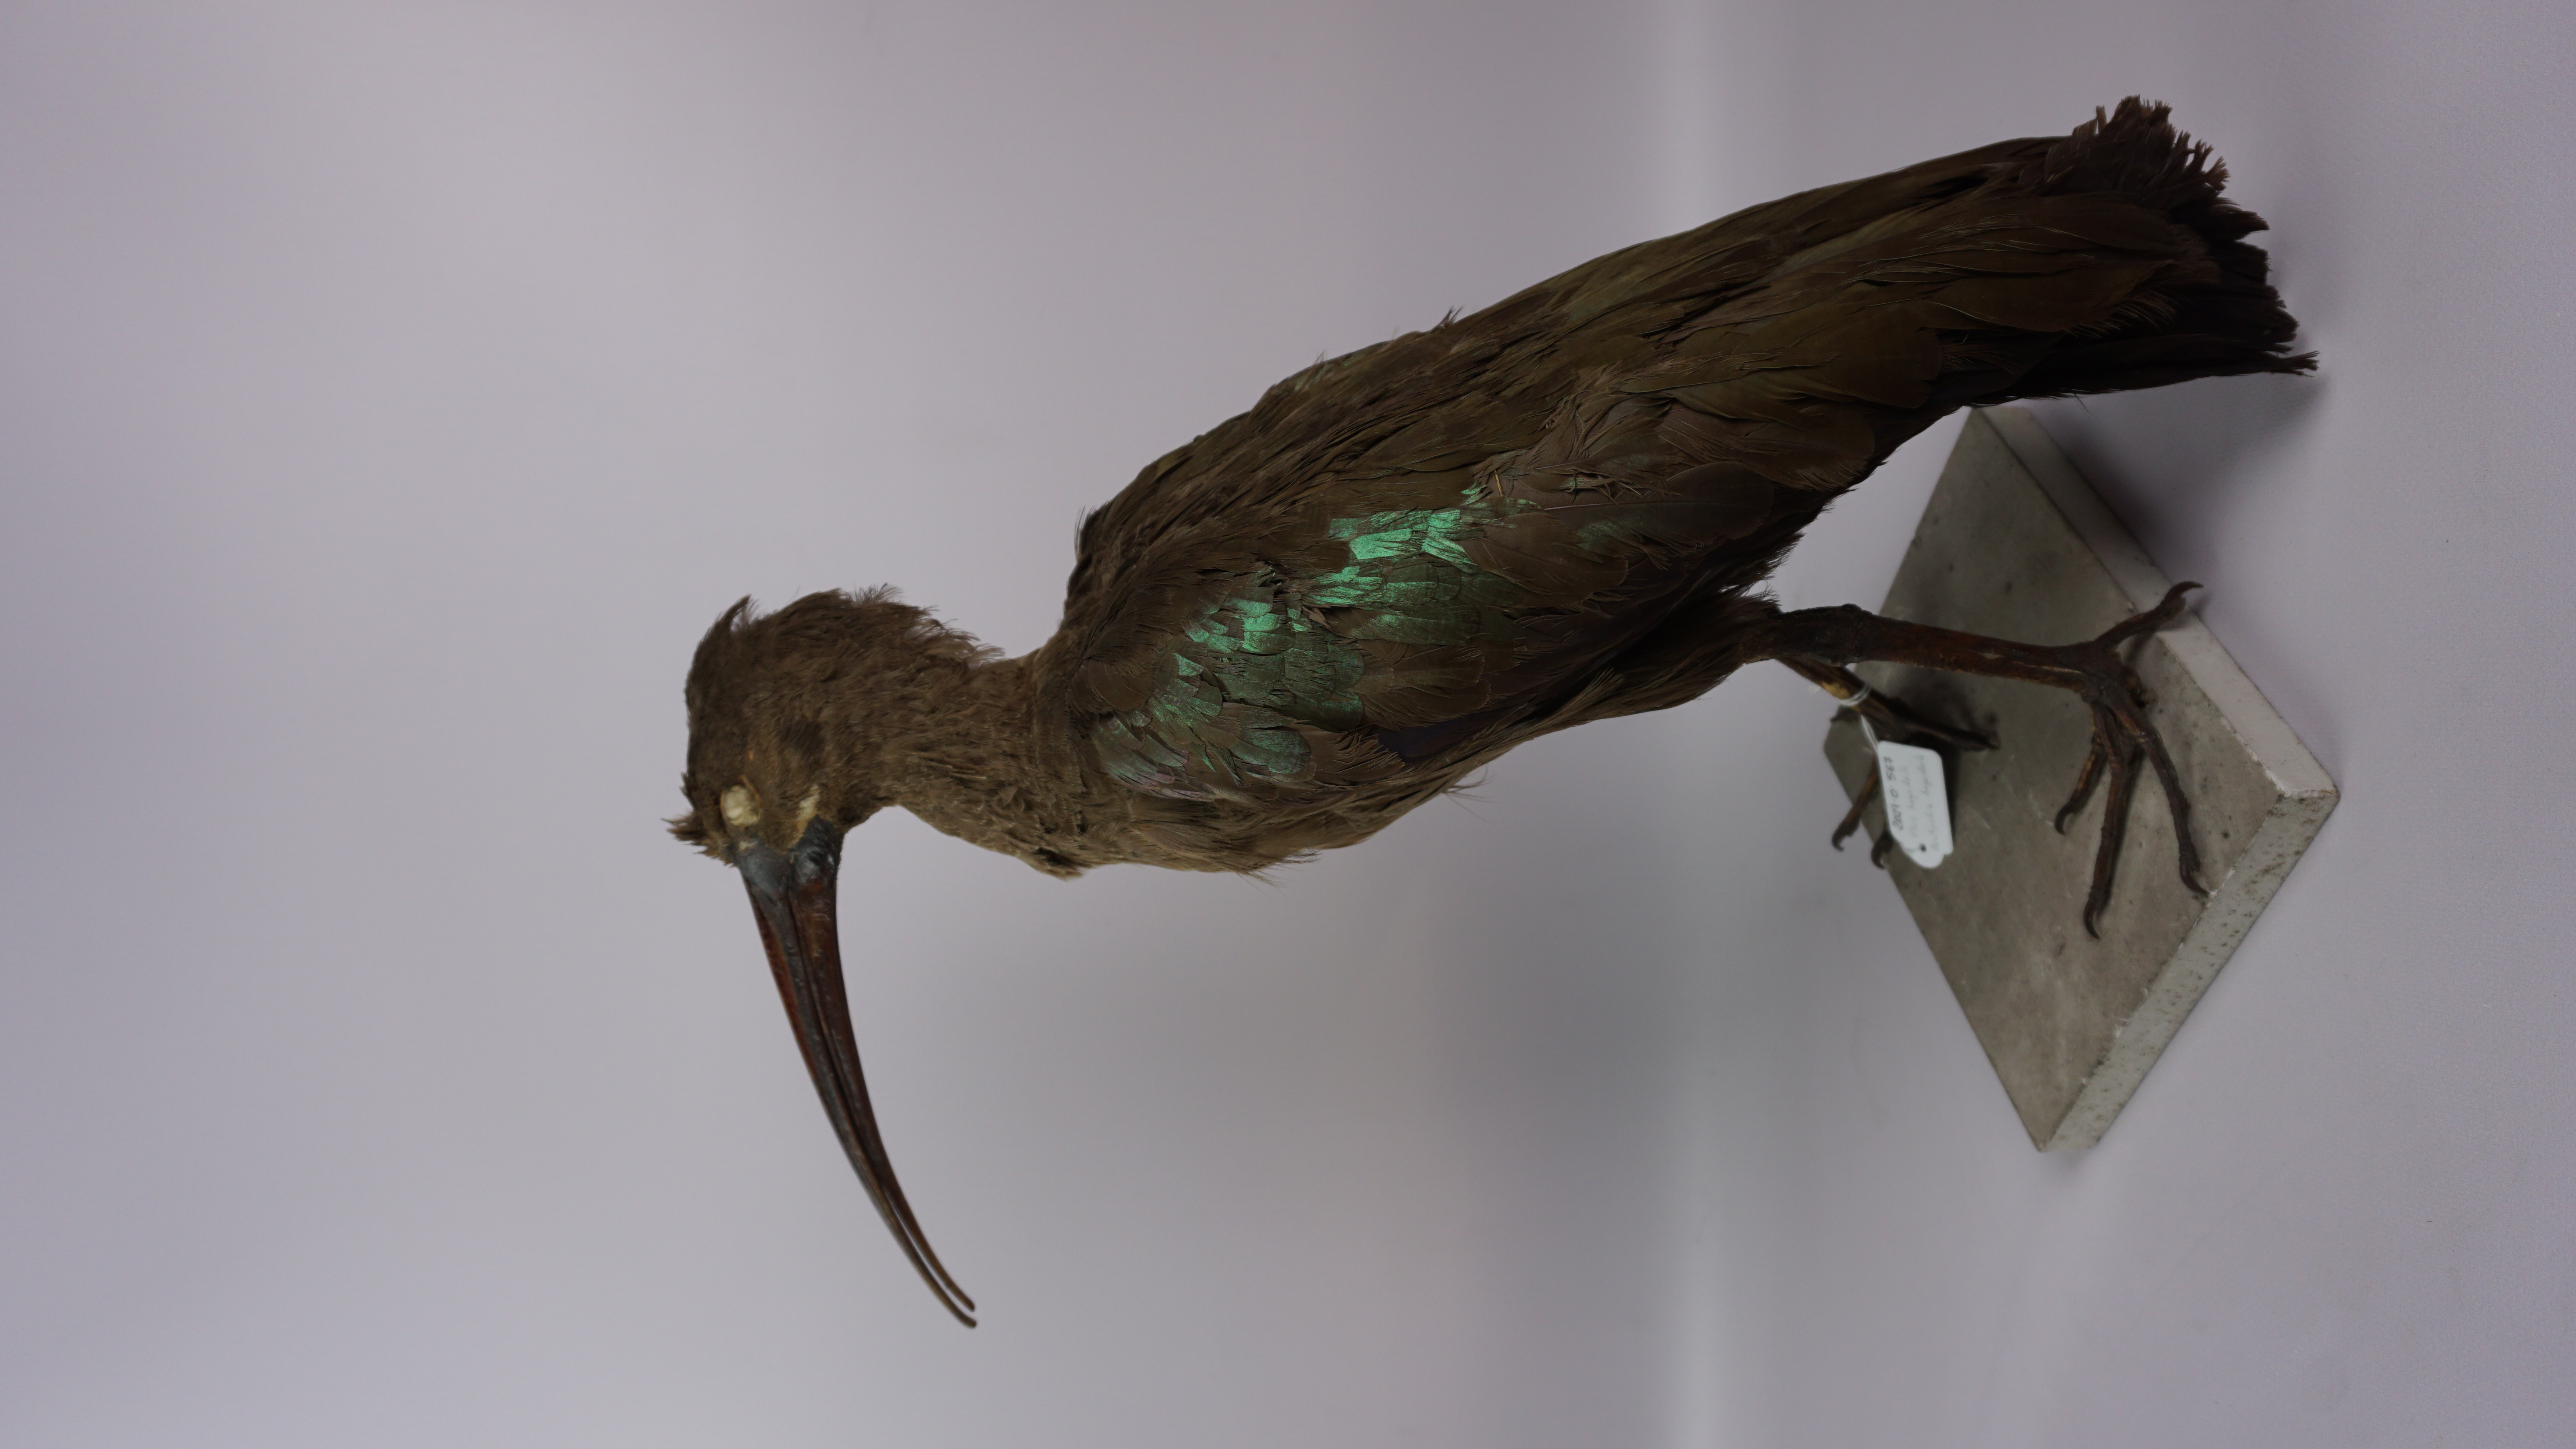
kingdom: Animalia
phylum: Chordata
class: Aves
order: Pelecaniformes
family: Threskiornithidae
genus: Bostrychia
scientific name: Bostrychia hagedash
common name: Hadada ibis
